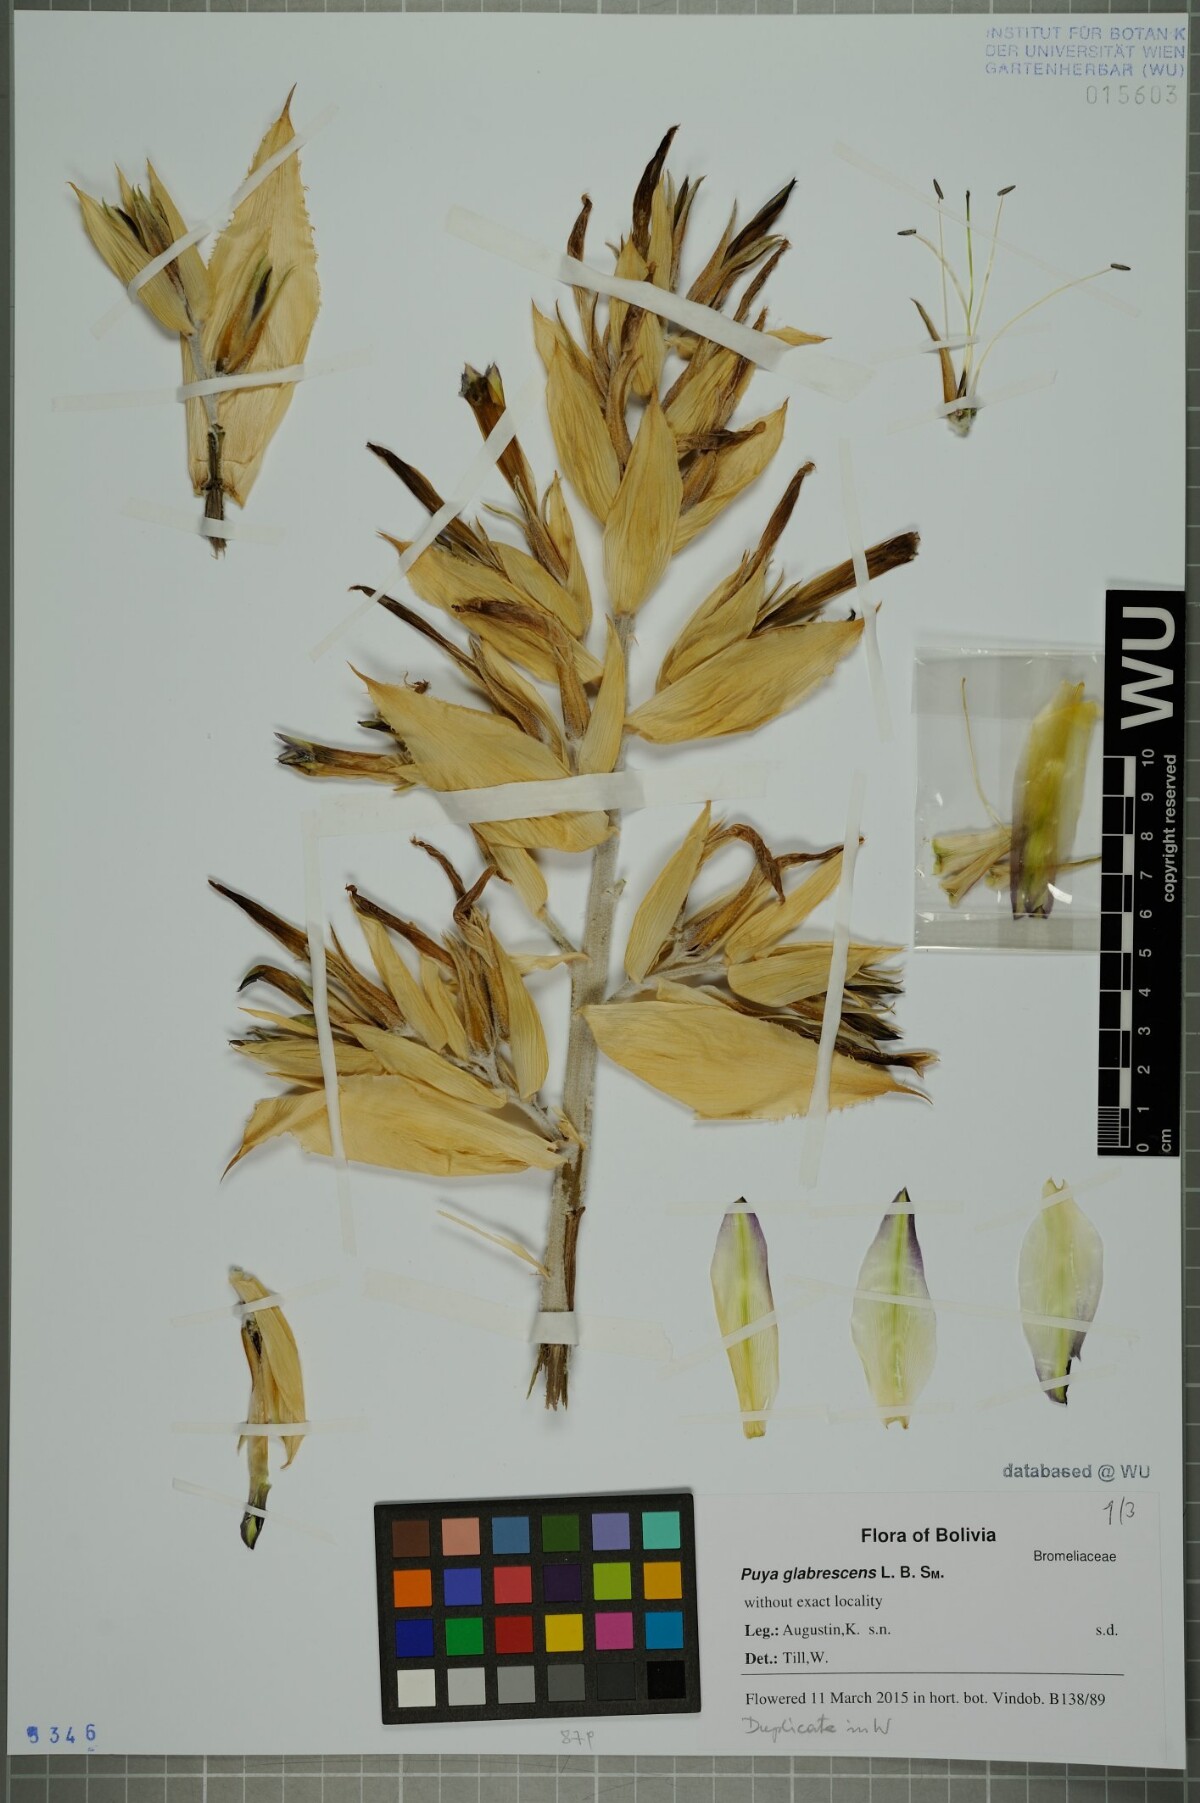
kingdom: Plantae
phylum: Tracheophyta
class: Liliopsida
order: Poales
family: Bromeliaceae
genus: Puya
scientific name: Puya glabrescens
